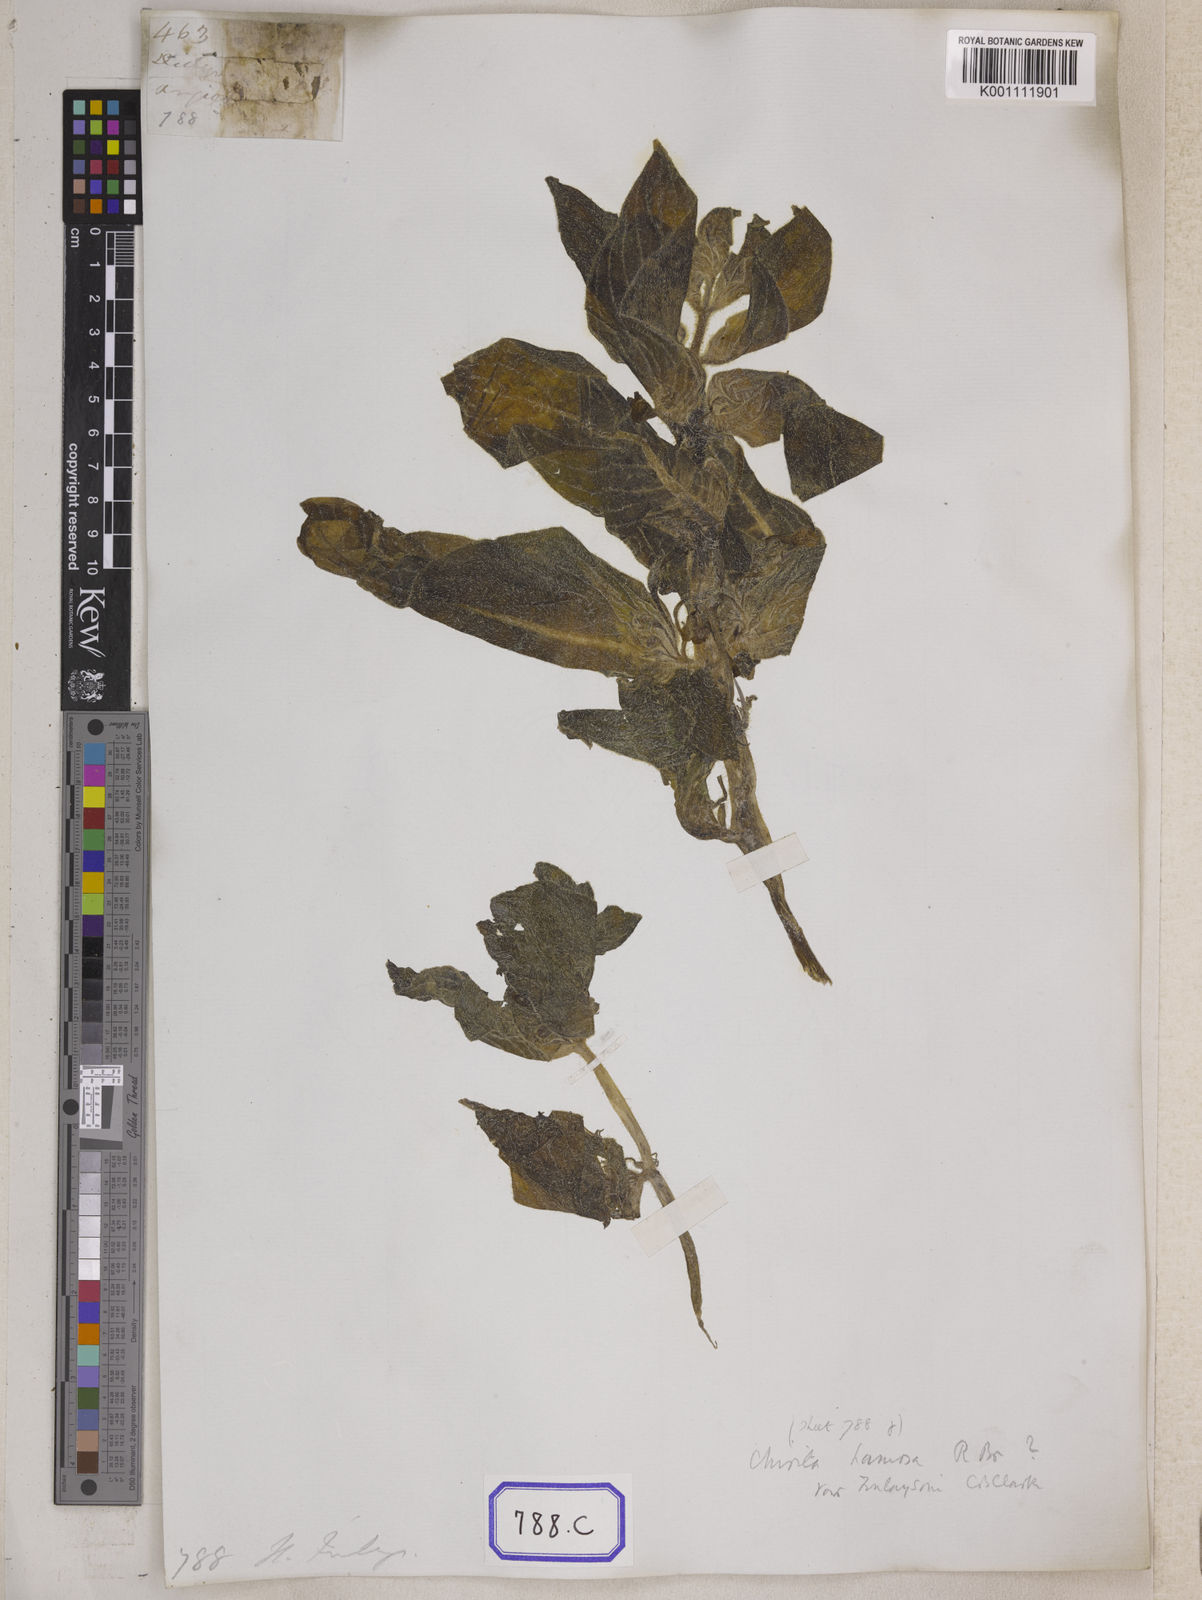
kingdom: Plantae
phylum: Tracheophyta
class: Magnoliopsida
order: Lamiales
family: Gesneriaceae
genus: Didymocarpus
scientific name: Didymocarpus
